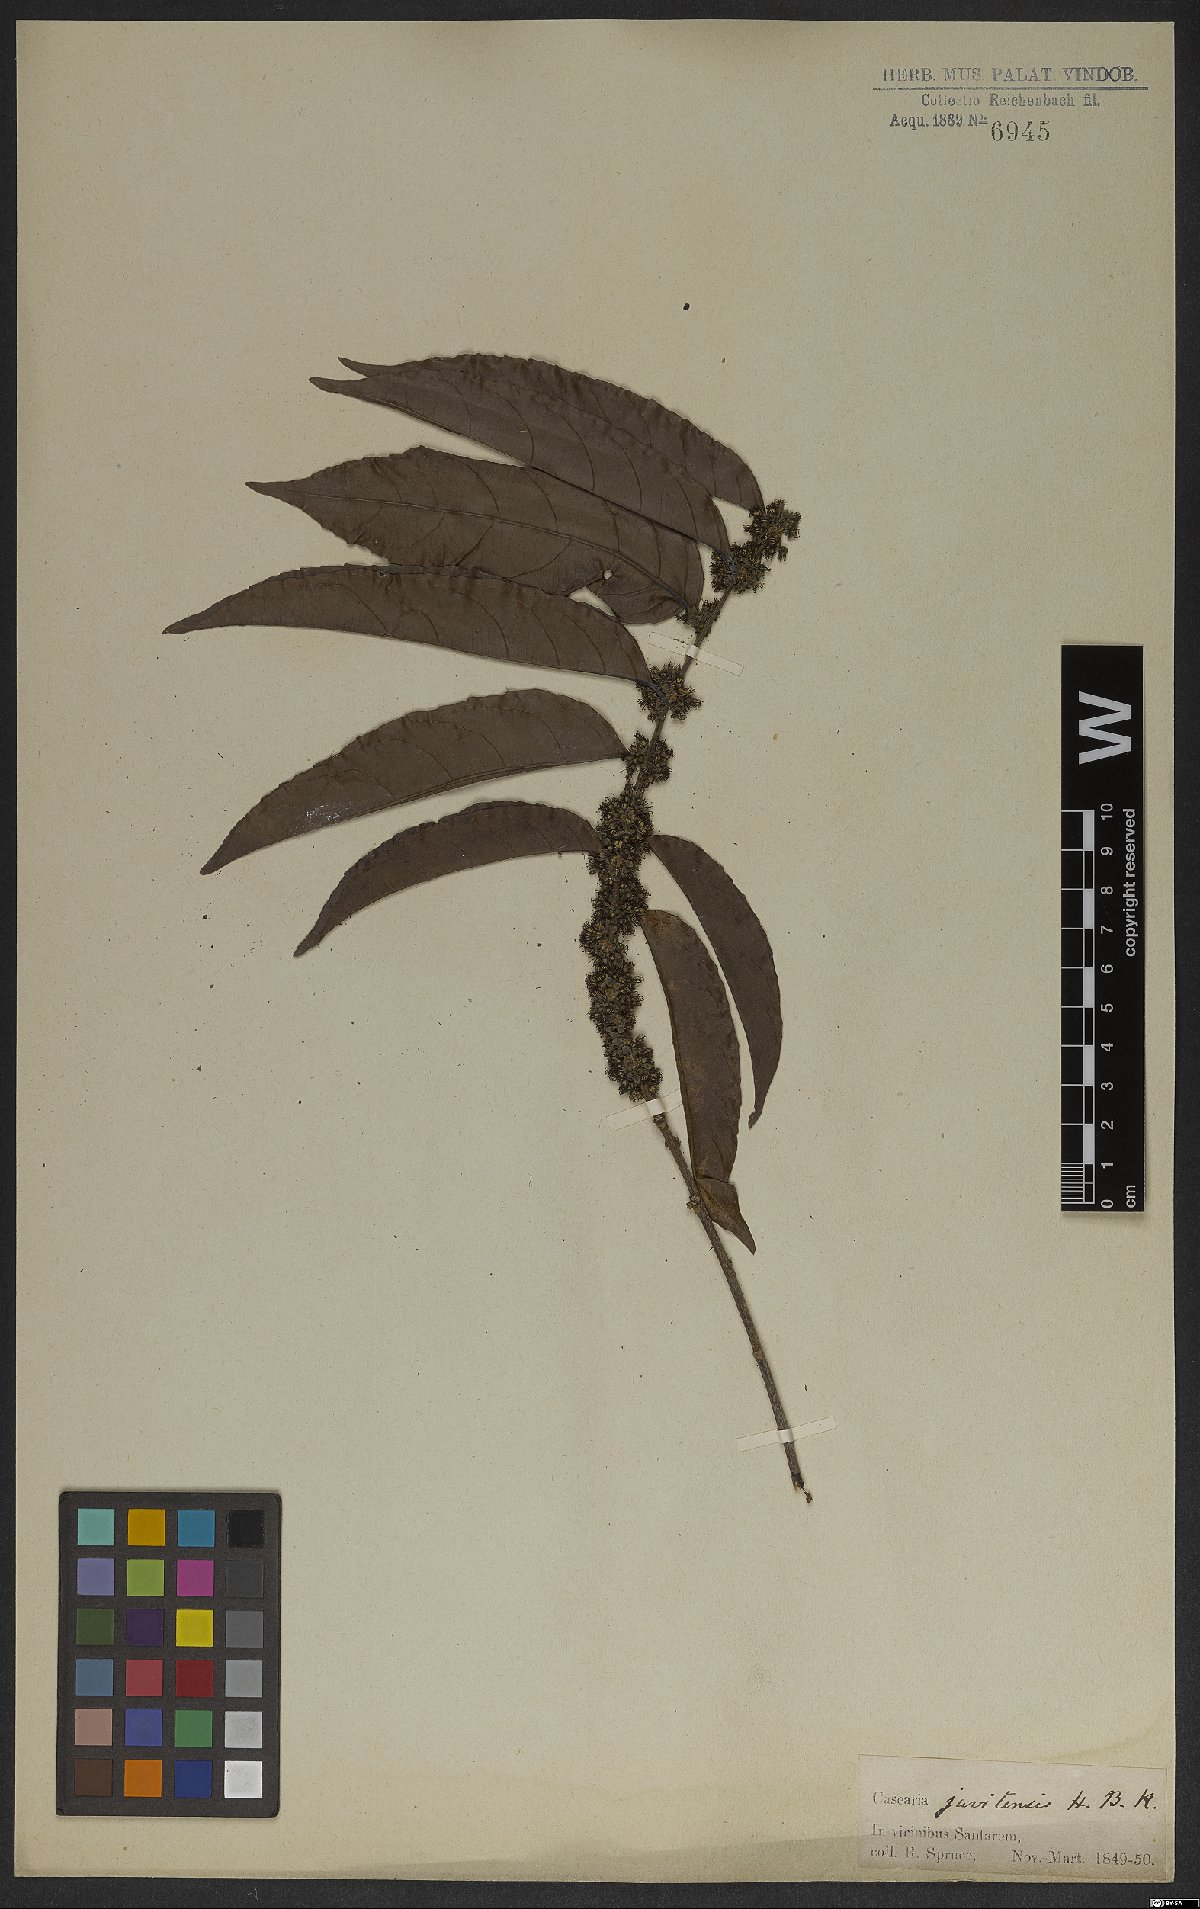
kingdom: Plantae
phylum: Tracheophyta
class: Magnoliopsida
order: Malpighiales
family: Salicaceae
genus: Piparea
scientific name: Piparea multiflora
